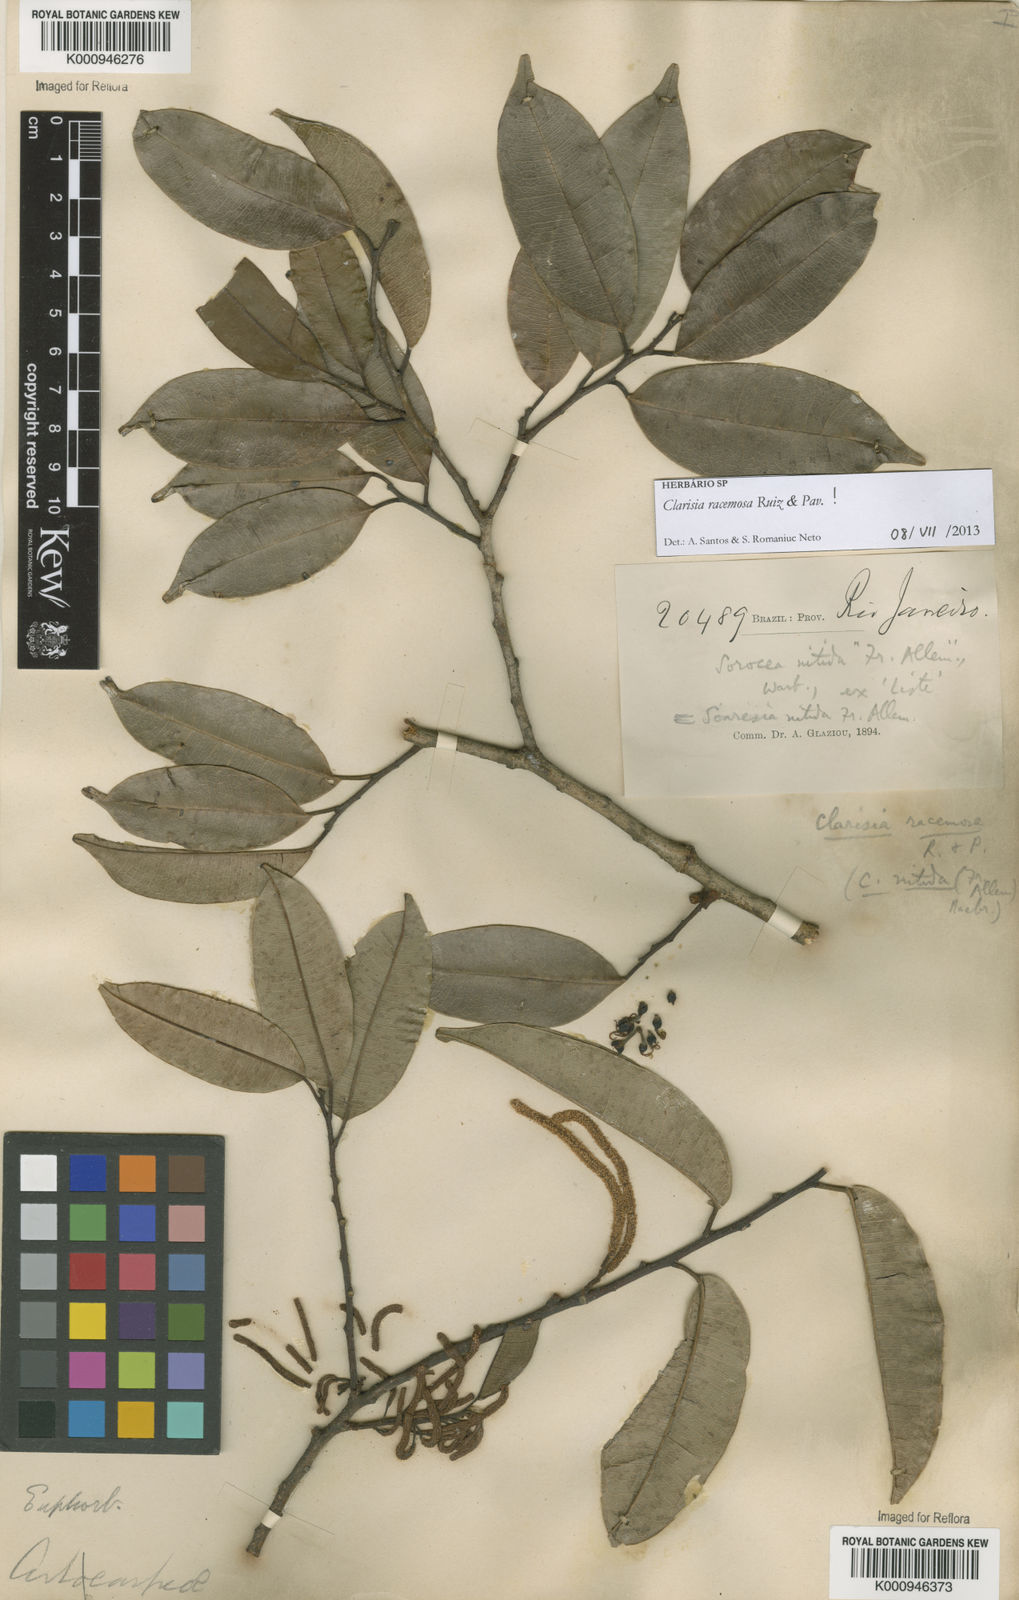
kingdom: Plantae
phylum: Tracheophyta
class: Magnoliopsida
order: Rosales
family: Moraceae
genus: Clarisia
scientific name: Clarisia racemosa
